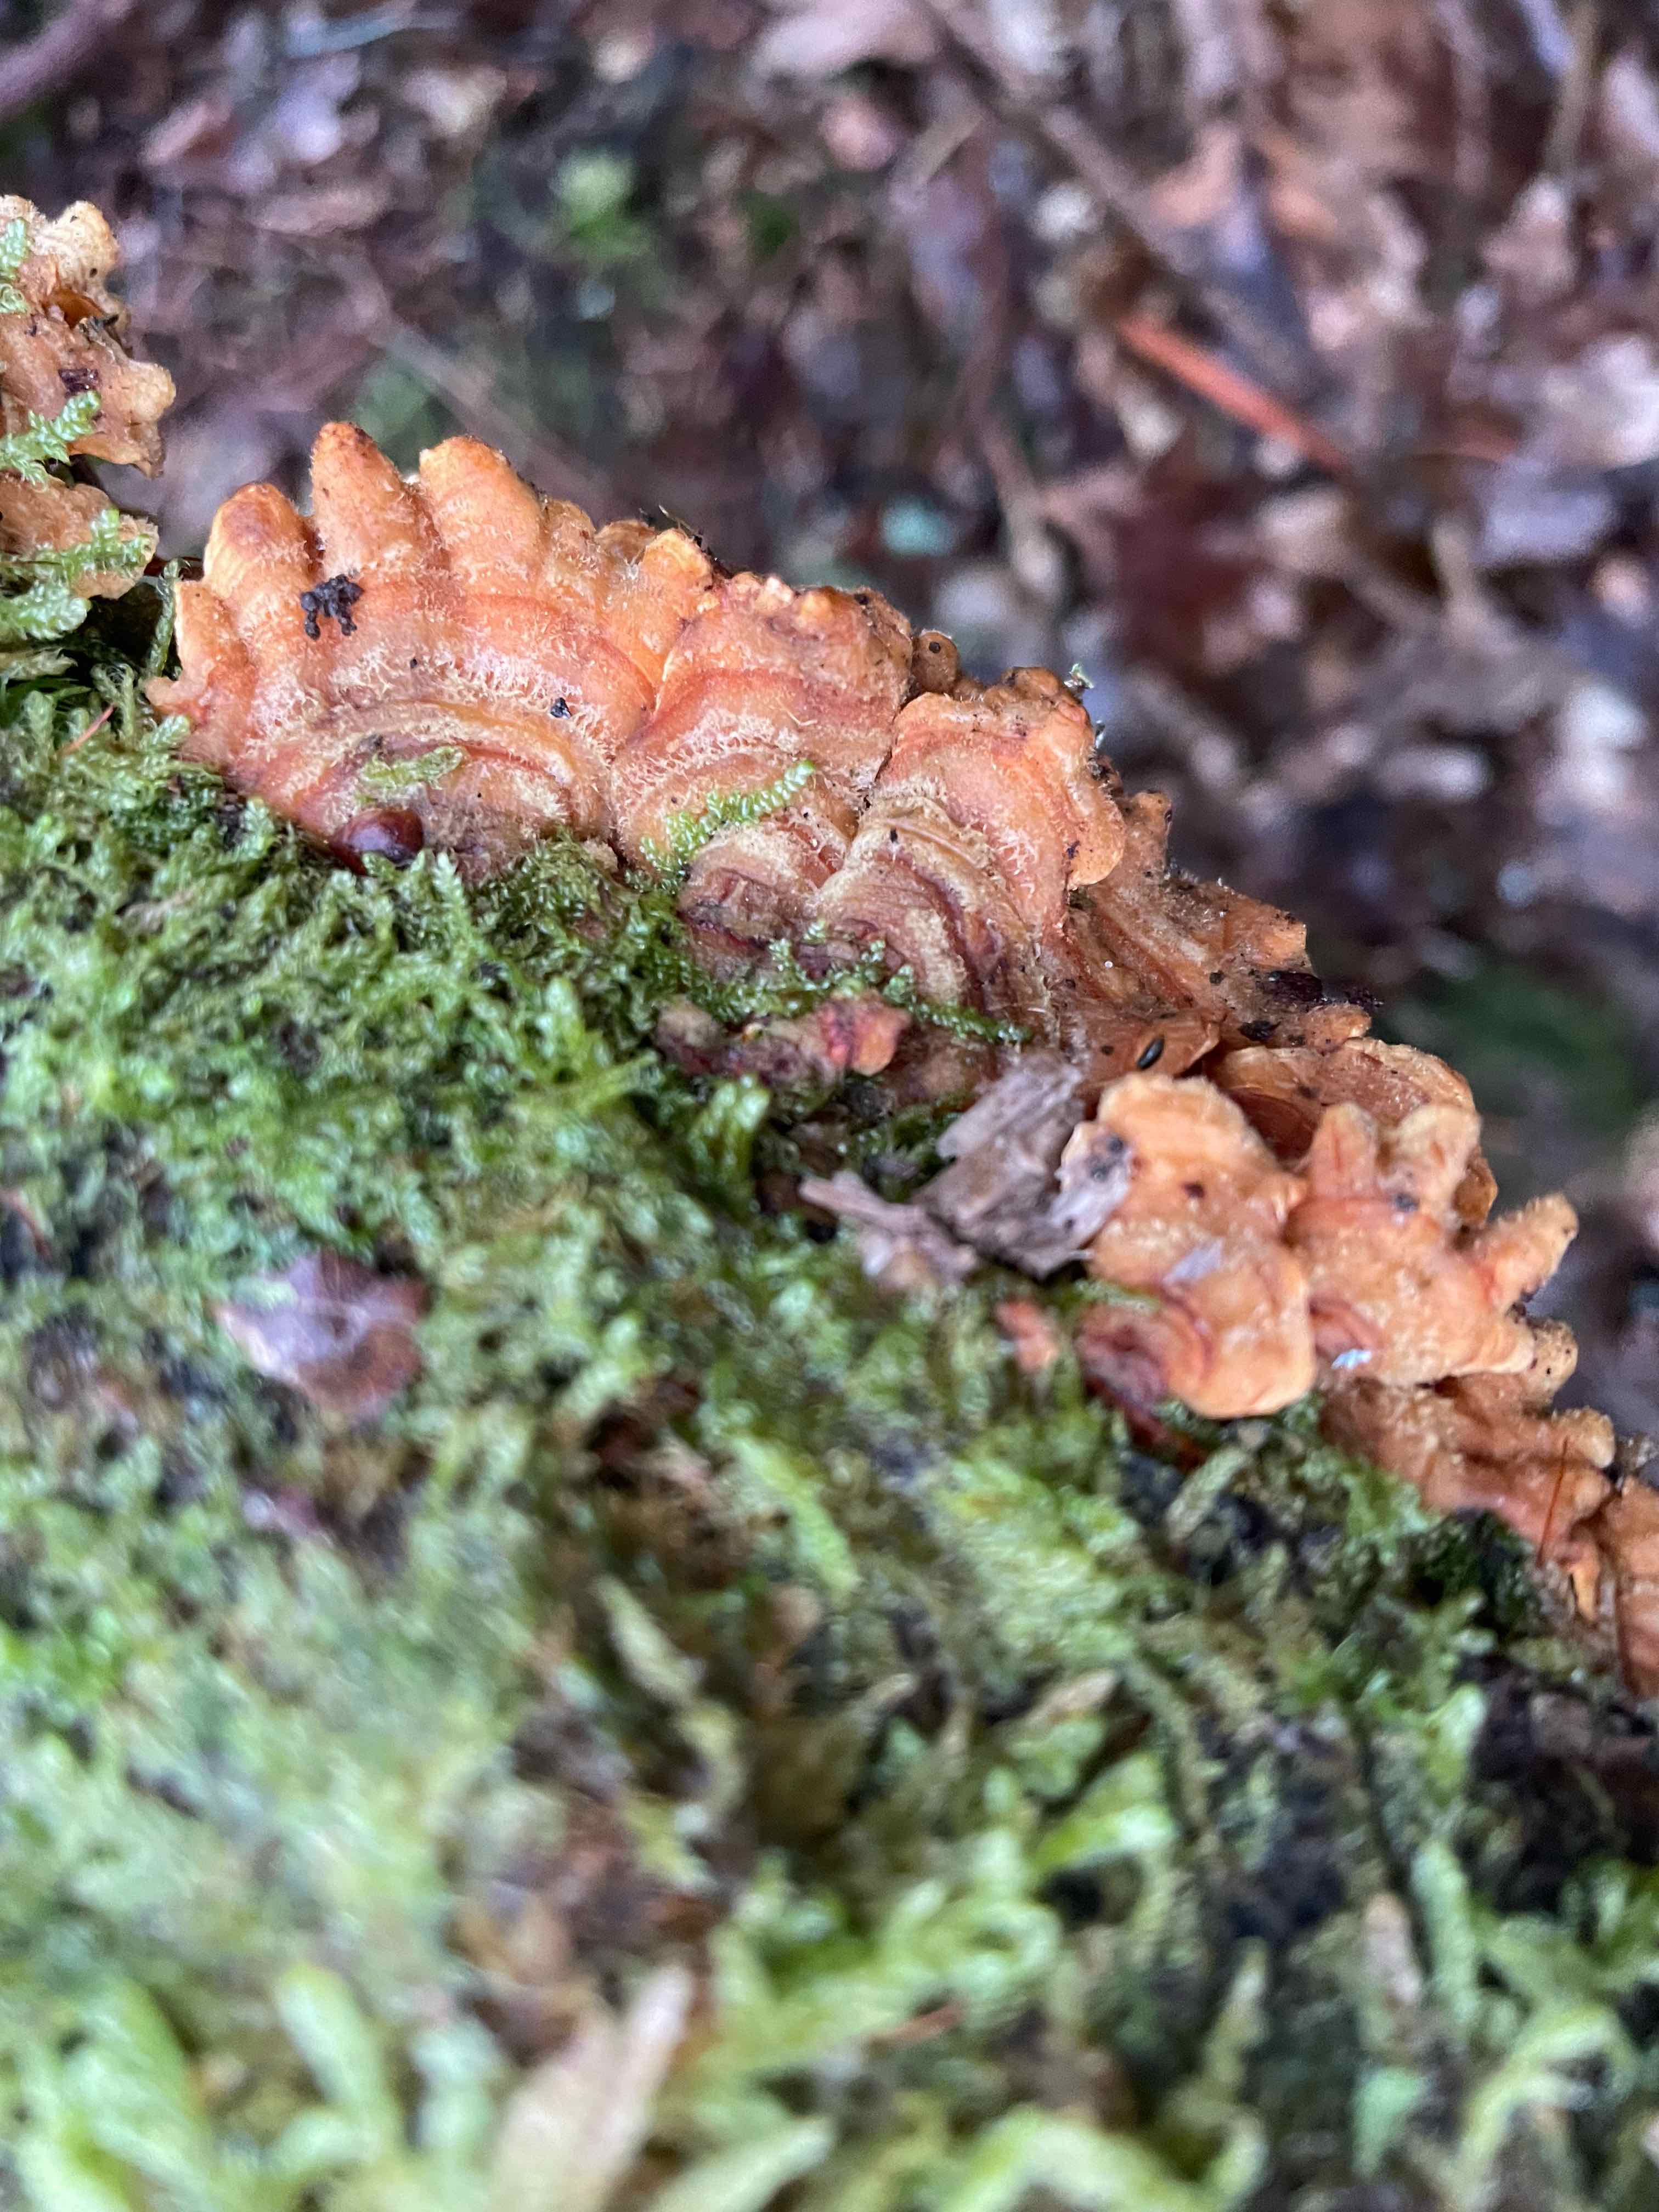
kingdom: Fungi
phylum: Basidiomycota
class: Agaricomycetes
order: Russulales
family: Stereaceae
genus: Stereum
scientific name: Stereum hirsutum
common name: håret lædersvamp
